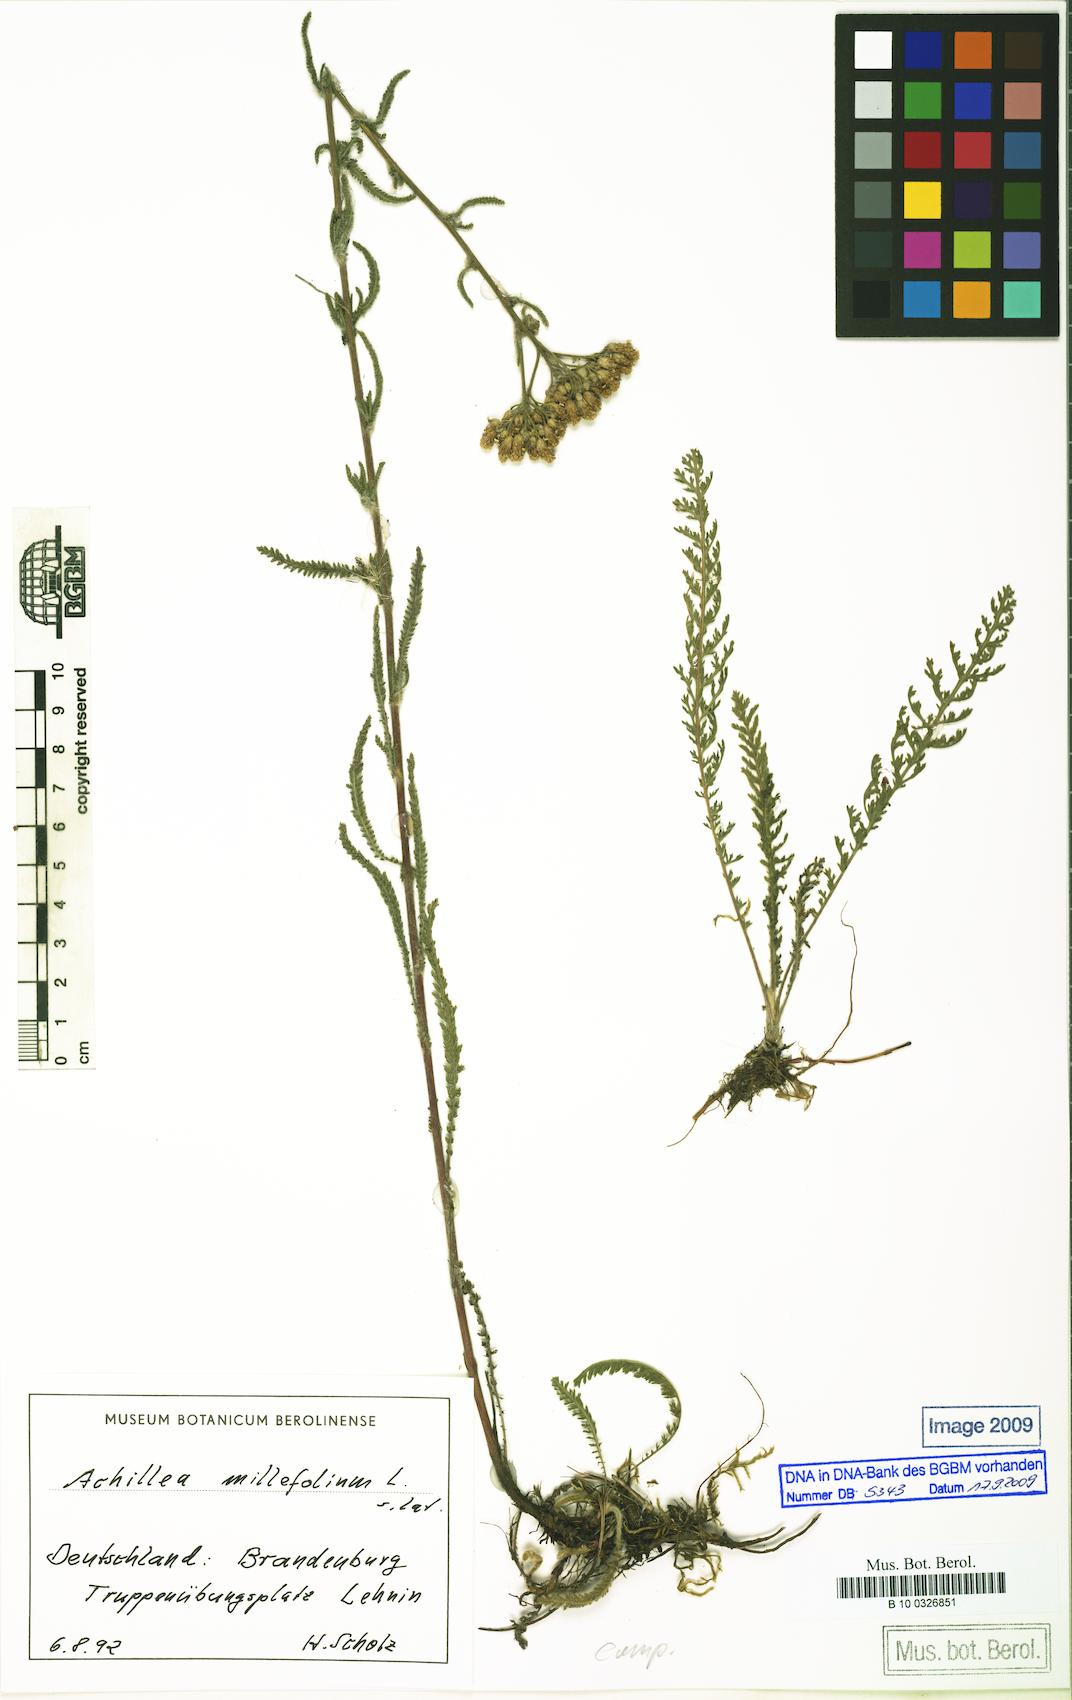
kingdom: Plantae
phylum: Tracheophyta
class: Magnoliopsida
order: Asterales
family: Asteraceae
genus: Achillea
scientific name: Achillea millefolium
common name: Yarrow
